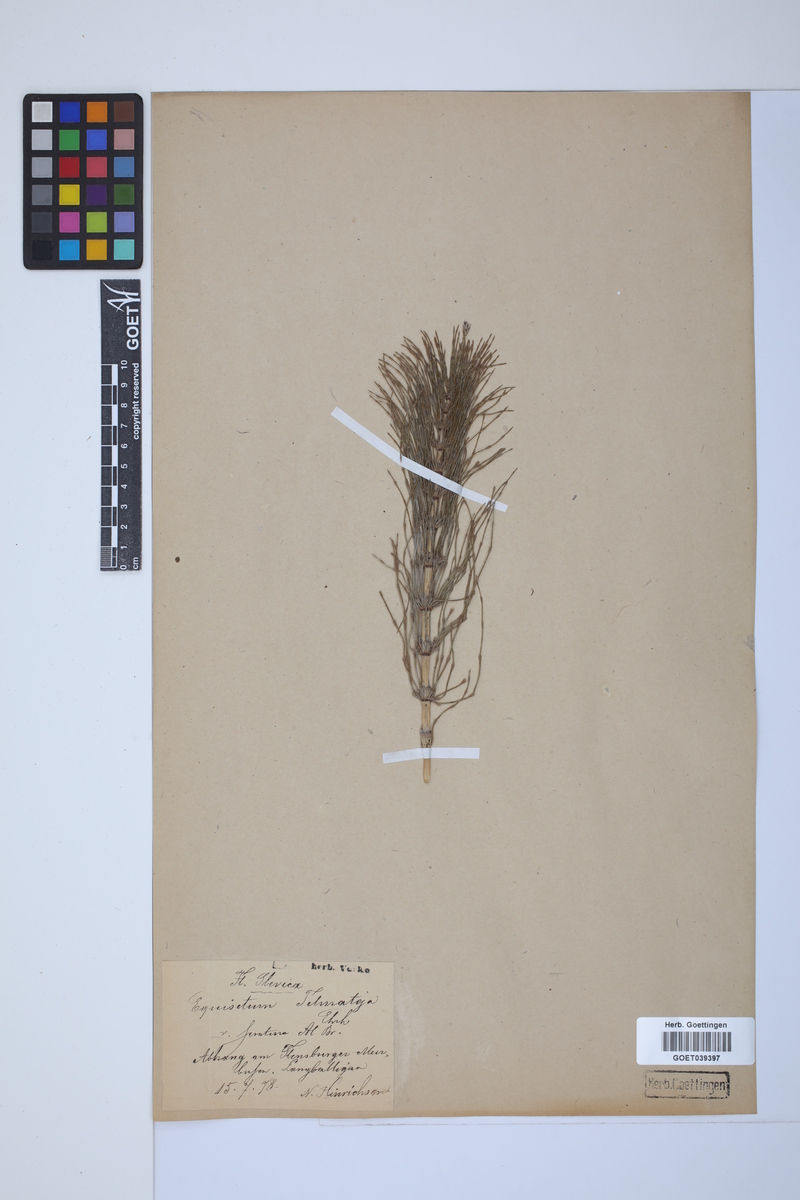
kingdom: Plantae
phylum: Tracheophyta
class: Polypodiopsida
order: Equisetales
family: Equisetaceae
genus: Equisetum
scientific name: Equisetum telmateia
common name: Great horsetail
